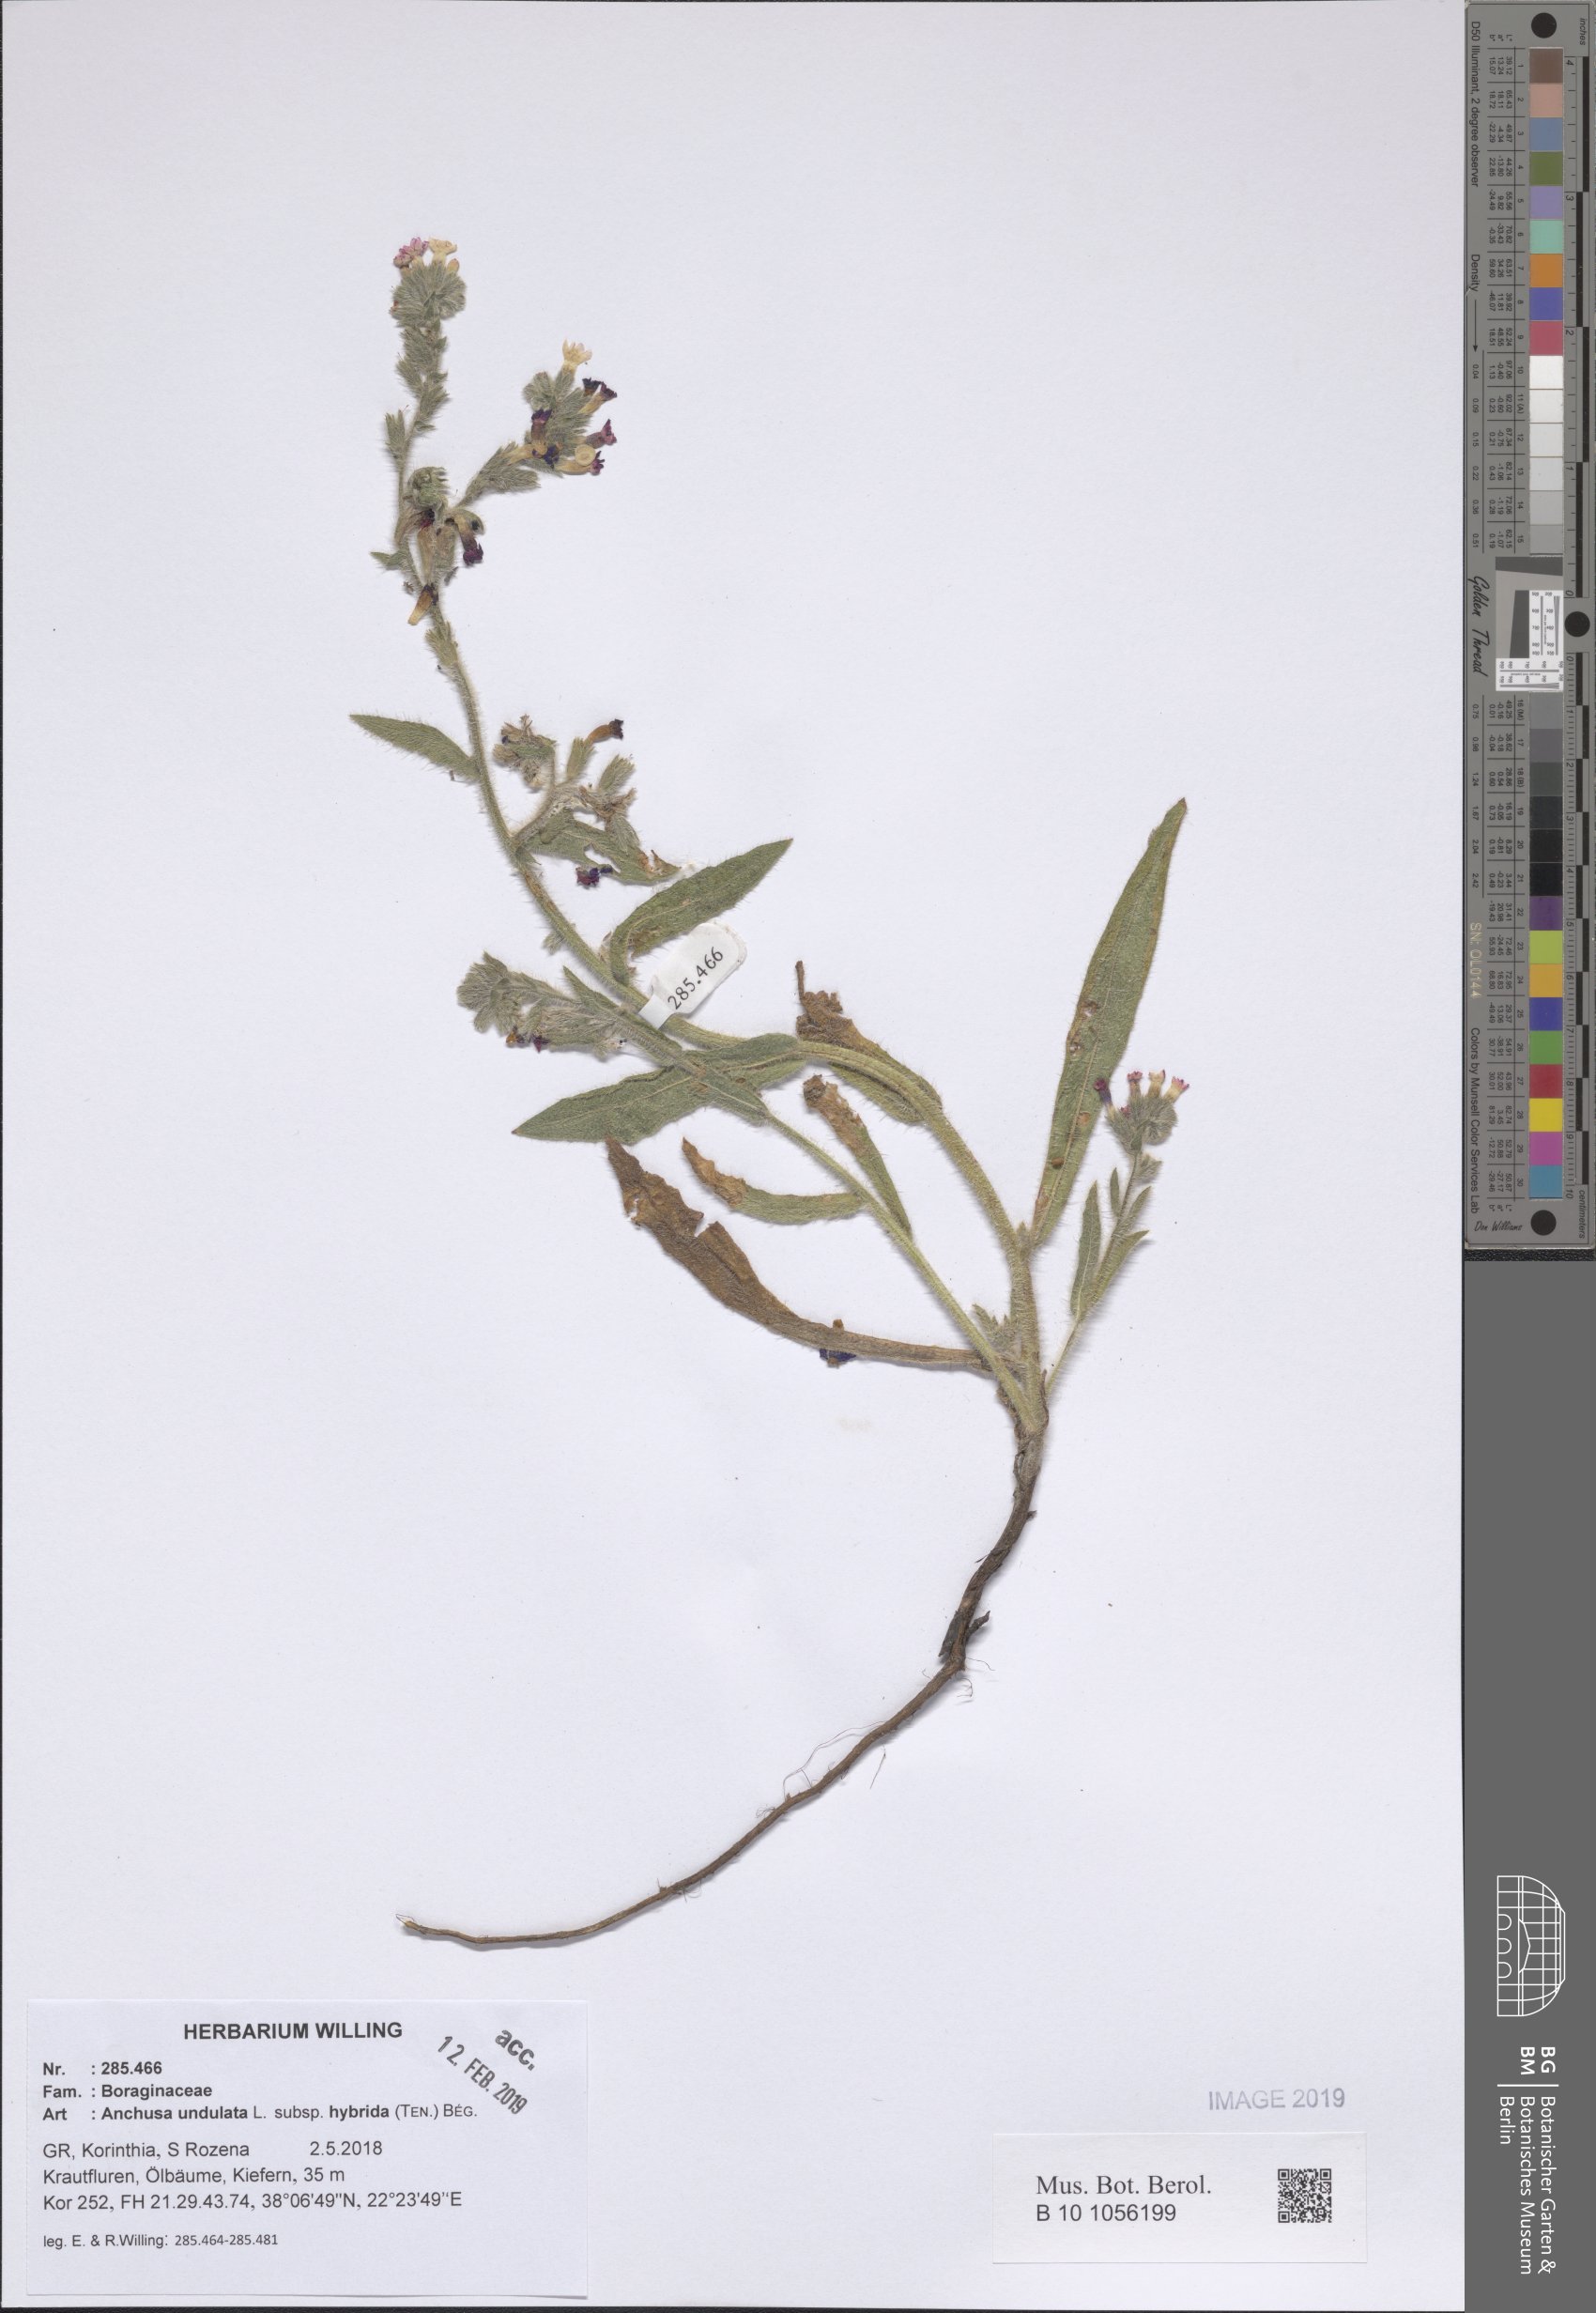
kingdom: Plantae
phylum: Tracheophyta
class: Magnoliopsida
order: Boraginales
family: Boraginaceae
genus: Anchusa
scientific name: Anchusa undulata
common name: Undulate alkanet
